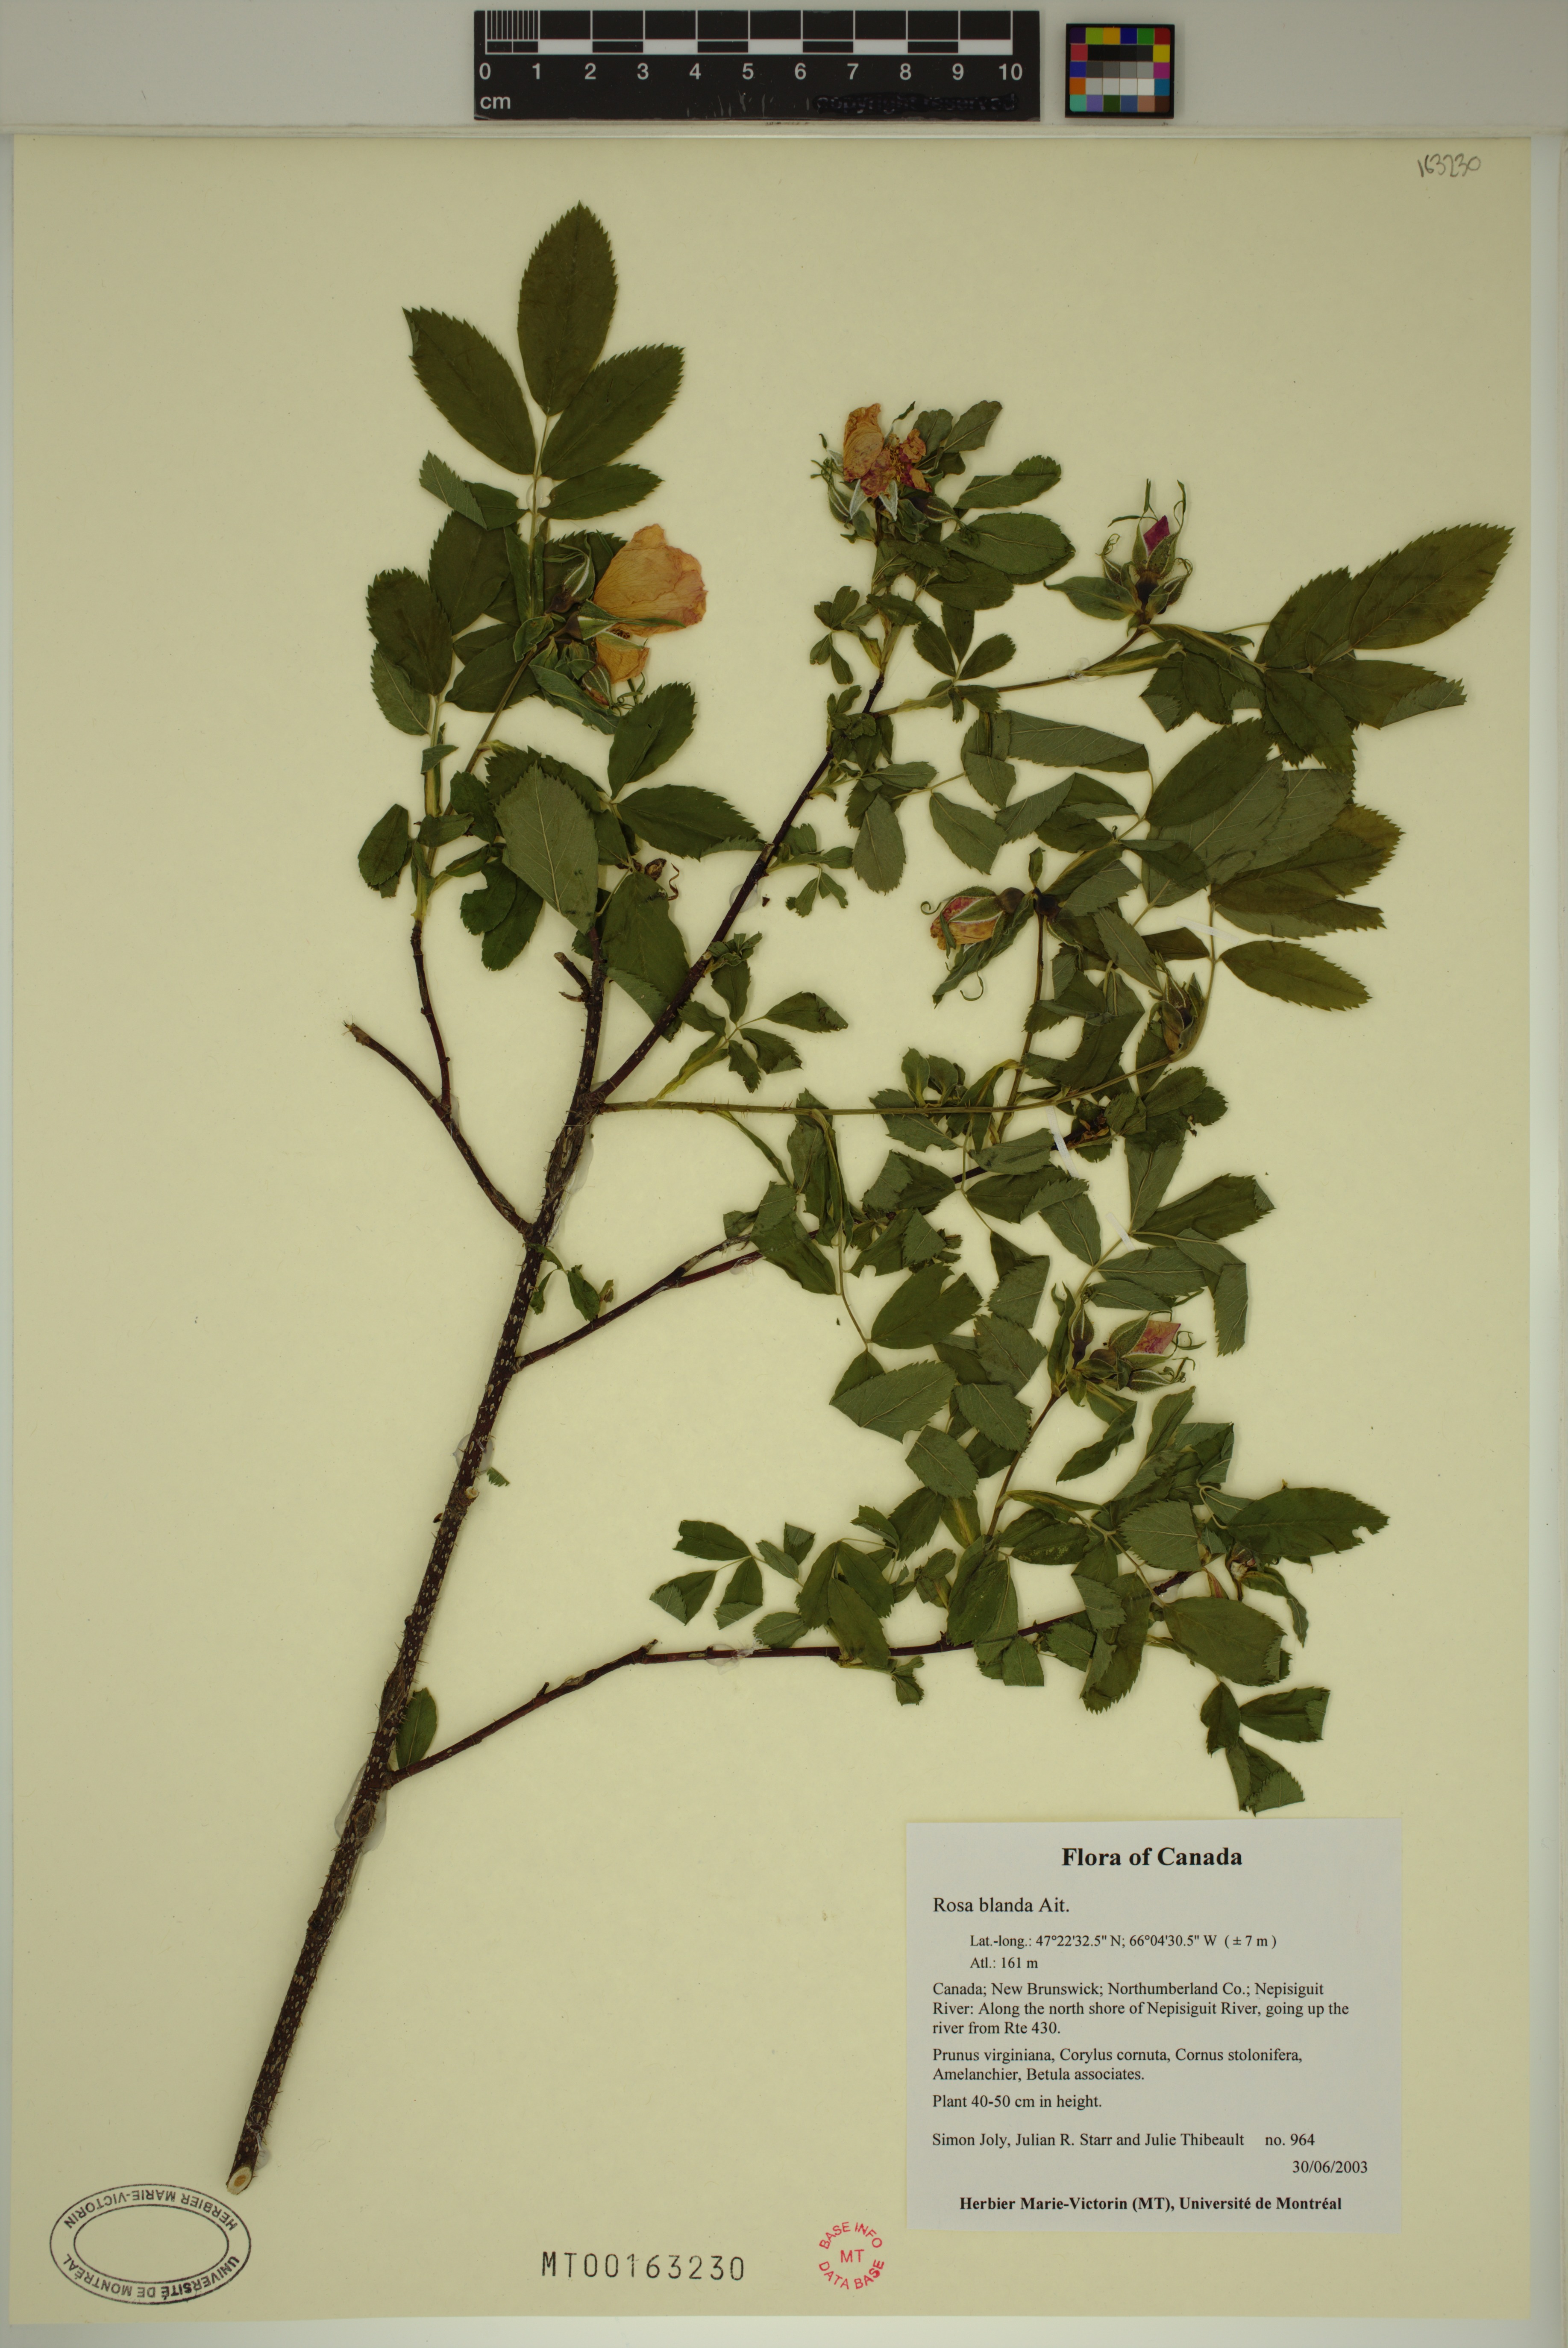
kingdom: Plantae
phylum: Tracheophyta
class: Magnoliopsida
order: Rosales
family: Rosaceae
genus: Rosa
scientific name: Rosa blanda
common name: Smooth rose
